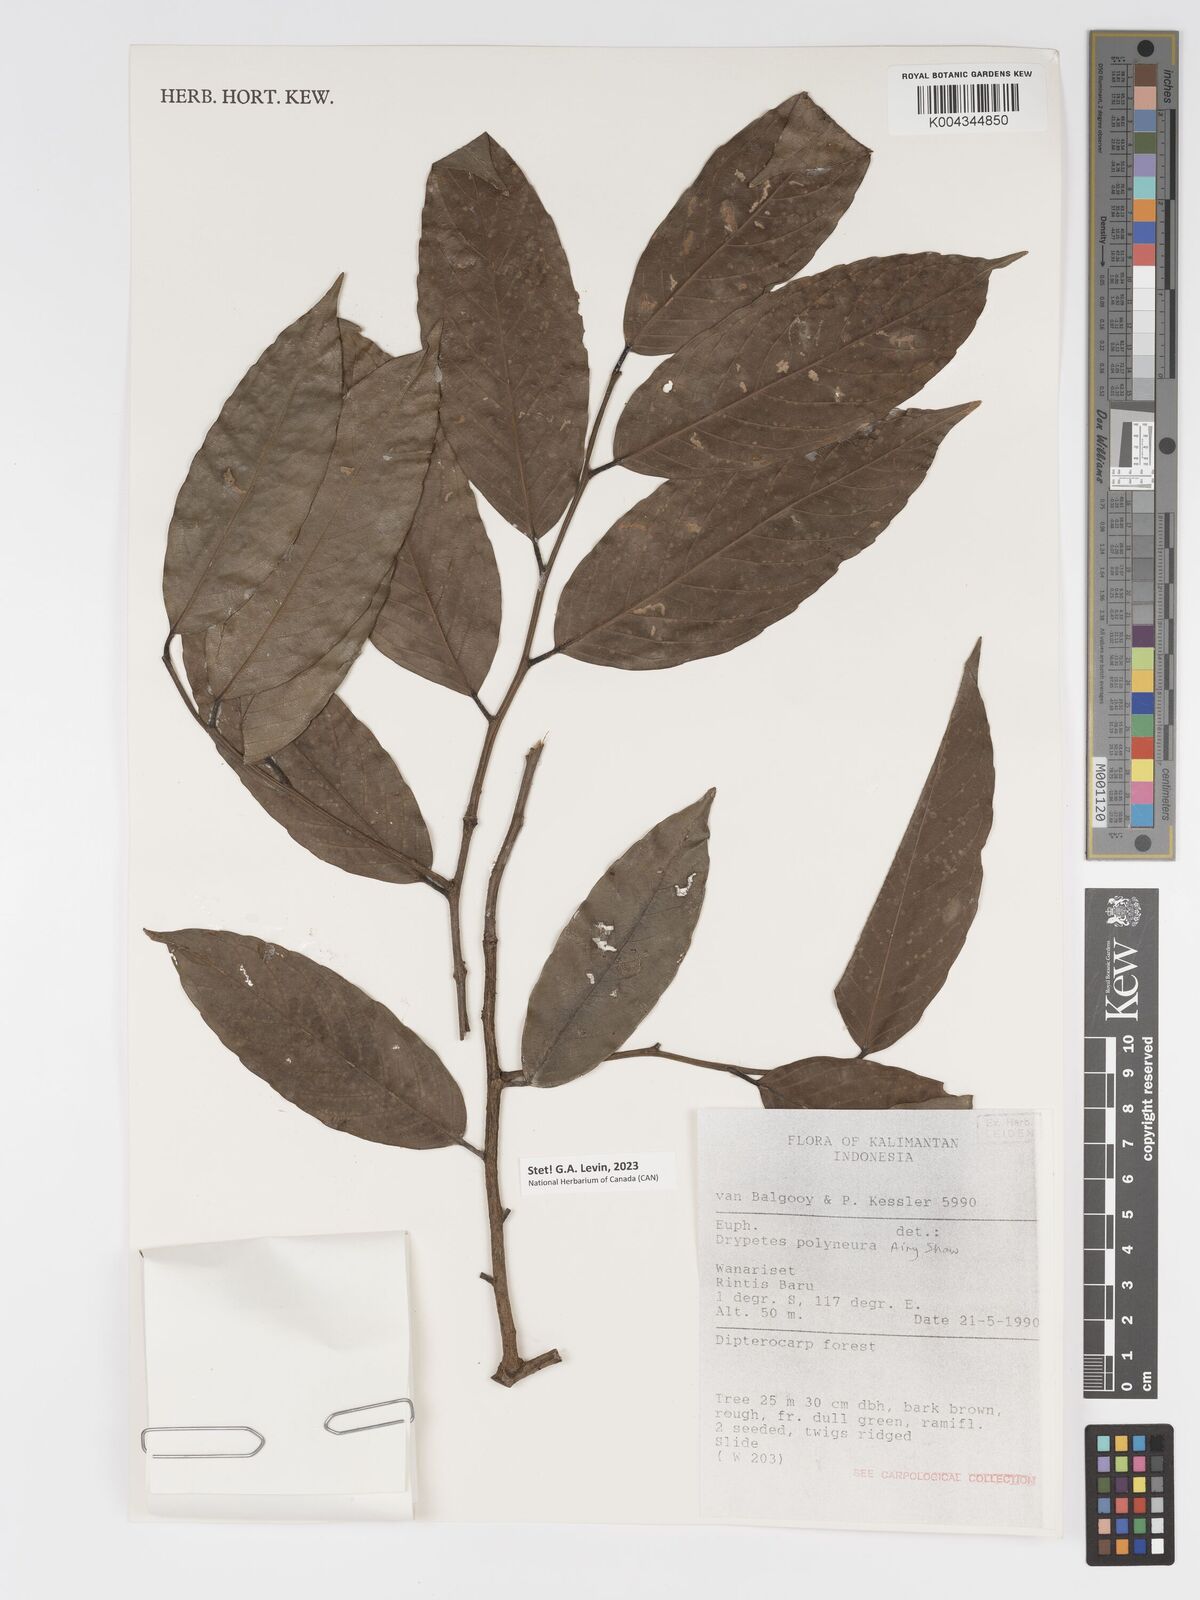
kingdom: Plantae
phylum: Tracheophyta
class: Magnoliopsida
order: Malpighiales
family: Putranjivaceae
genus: Drypetes
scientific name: Drypetes polyneura
